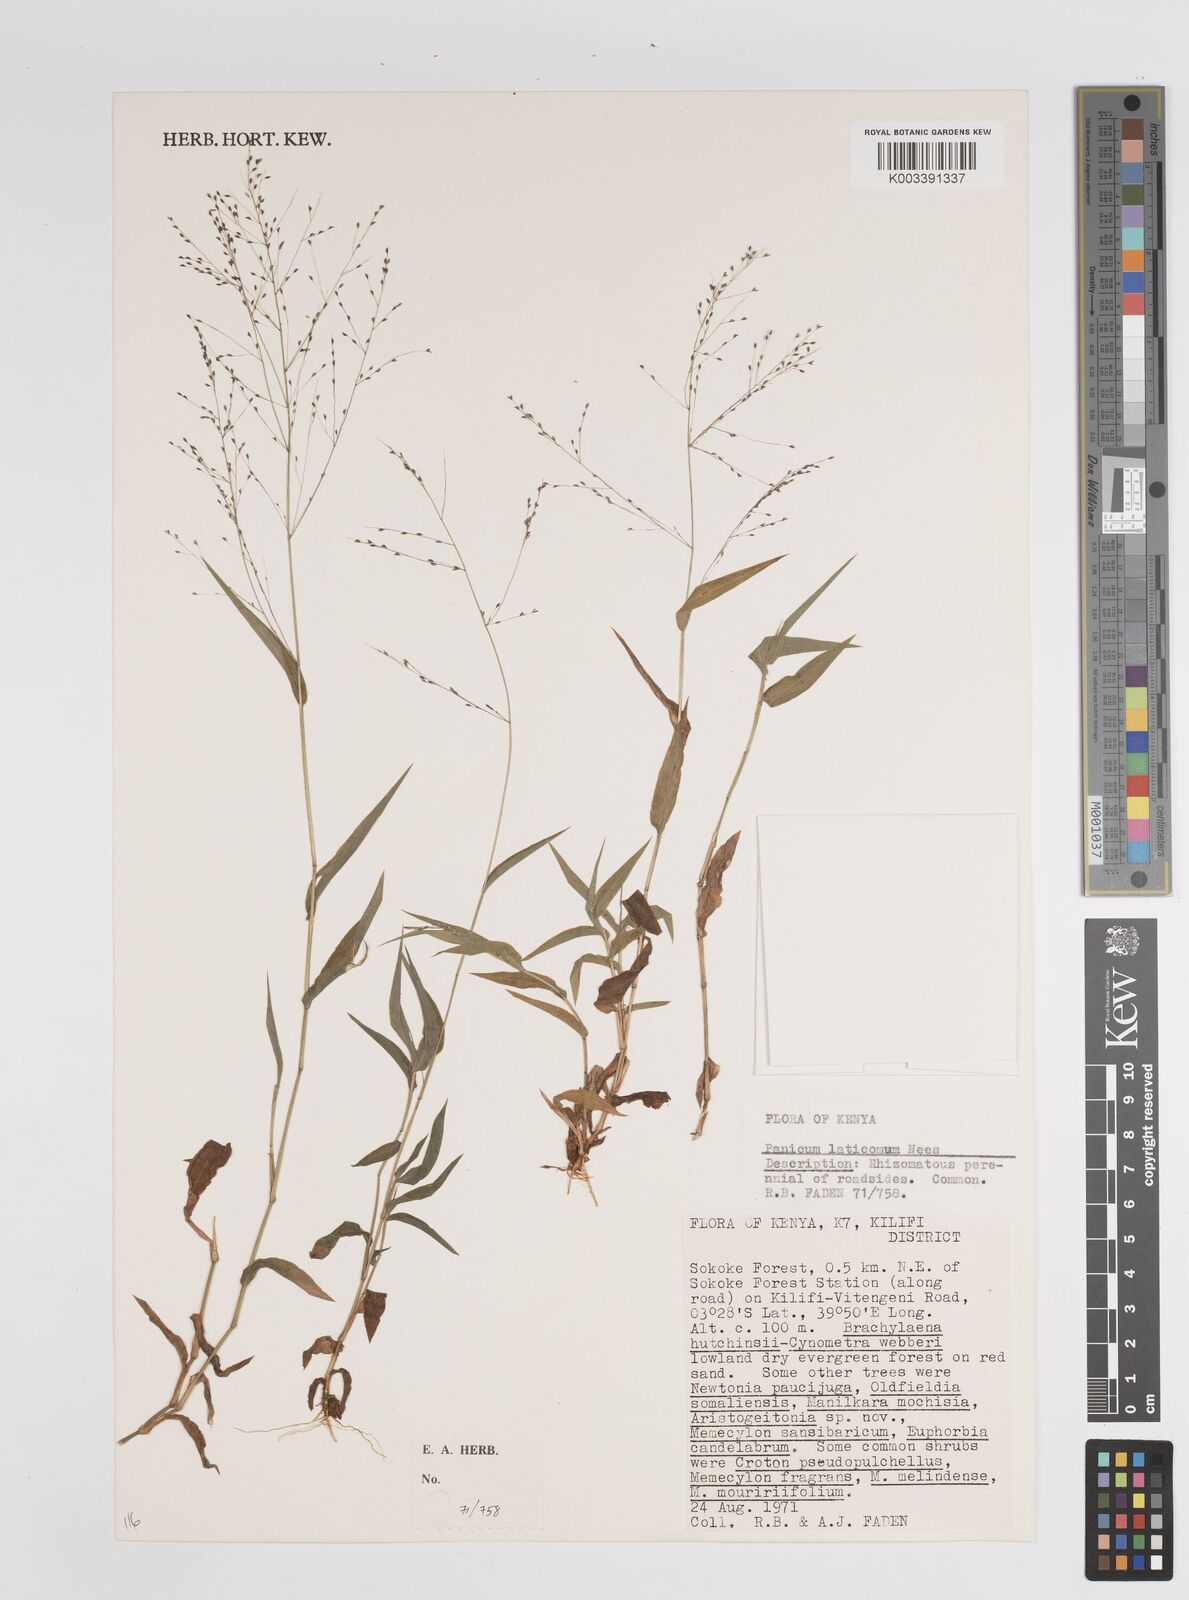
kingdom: Plantae
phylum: Tracheophyta
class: Liliopsida
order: Poales
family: Poaceae
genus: Panicum
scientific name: Panicum laticomum
